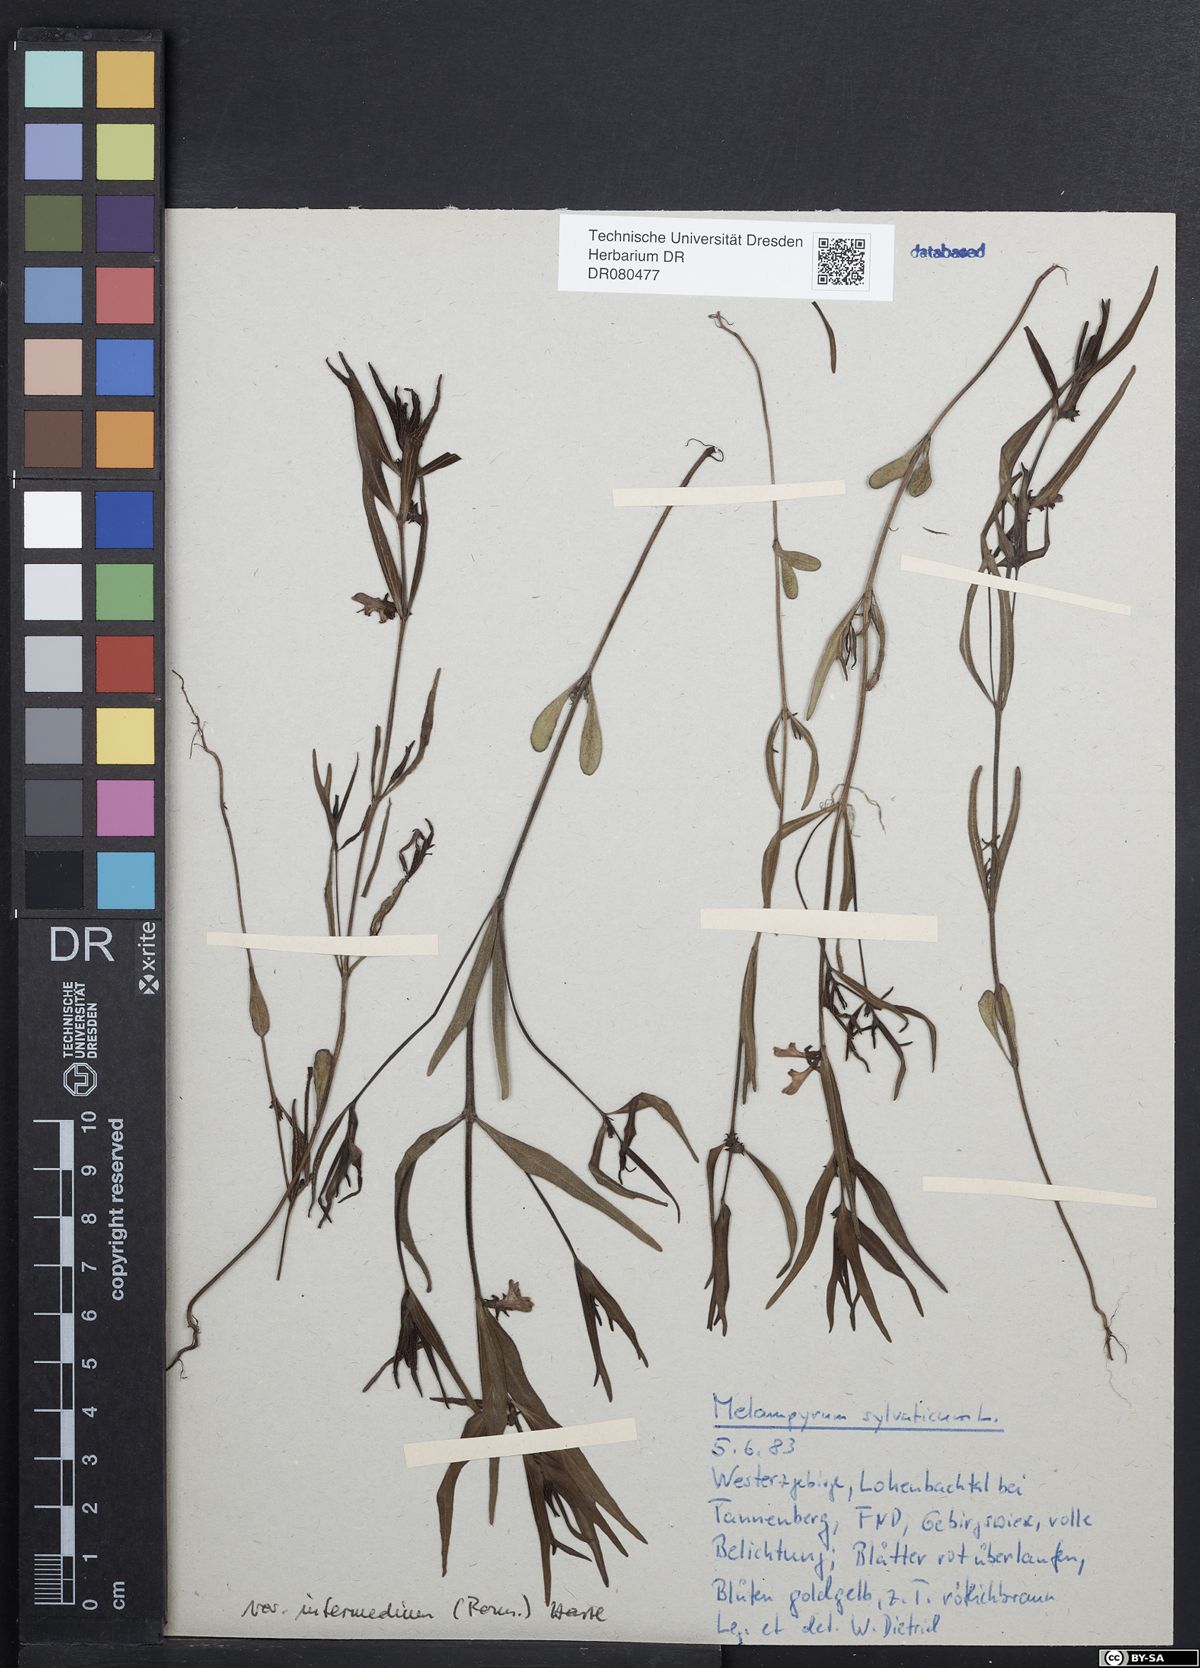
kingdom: Plantae
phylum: Tracheophyta
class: Magnoliopsida
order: Lamiales
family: Orobanchaceae
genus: Melampyrum
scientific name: Melampyrum sylvaticum
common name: Small cow-wheat
